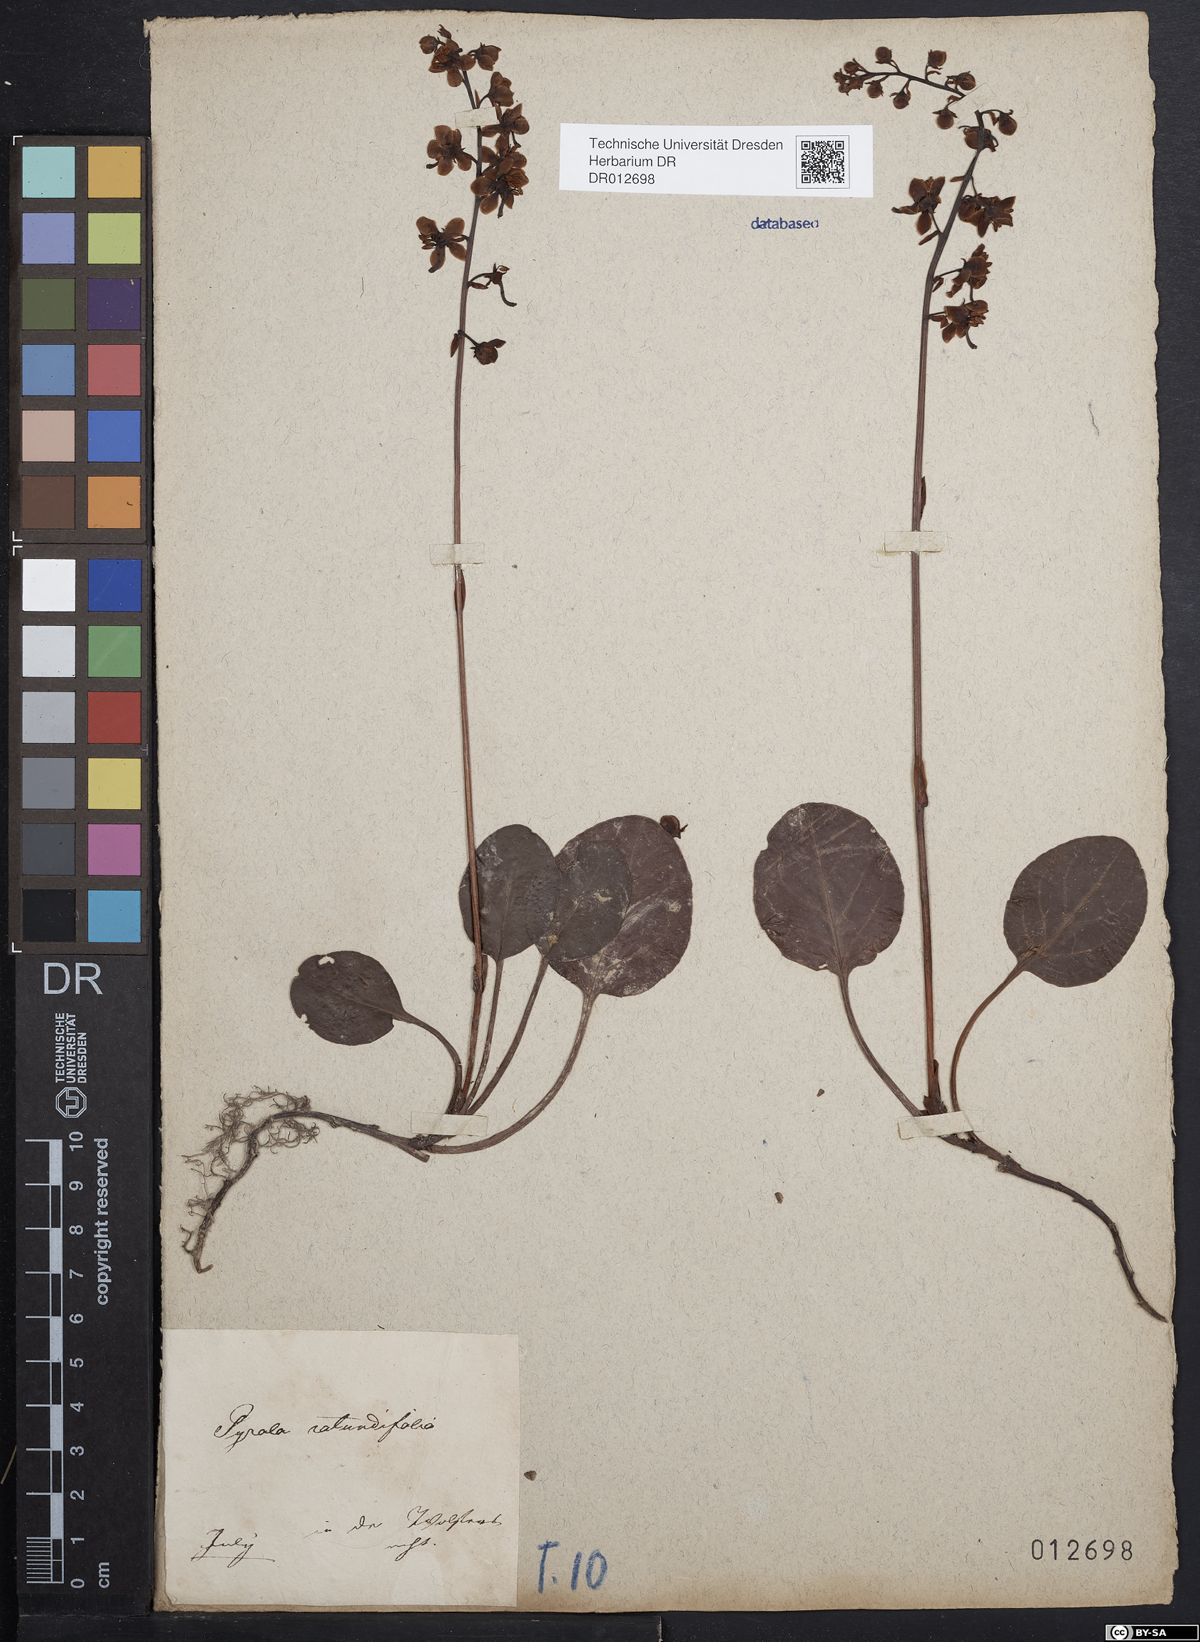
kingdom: Plantae
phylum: Tracheophyta
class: Magnoliopsida
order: Ericales
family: Ericaceae
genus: Pyrola
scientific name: Pyrola rotundifolia
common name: Round-leaved wintergreen
